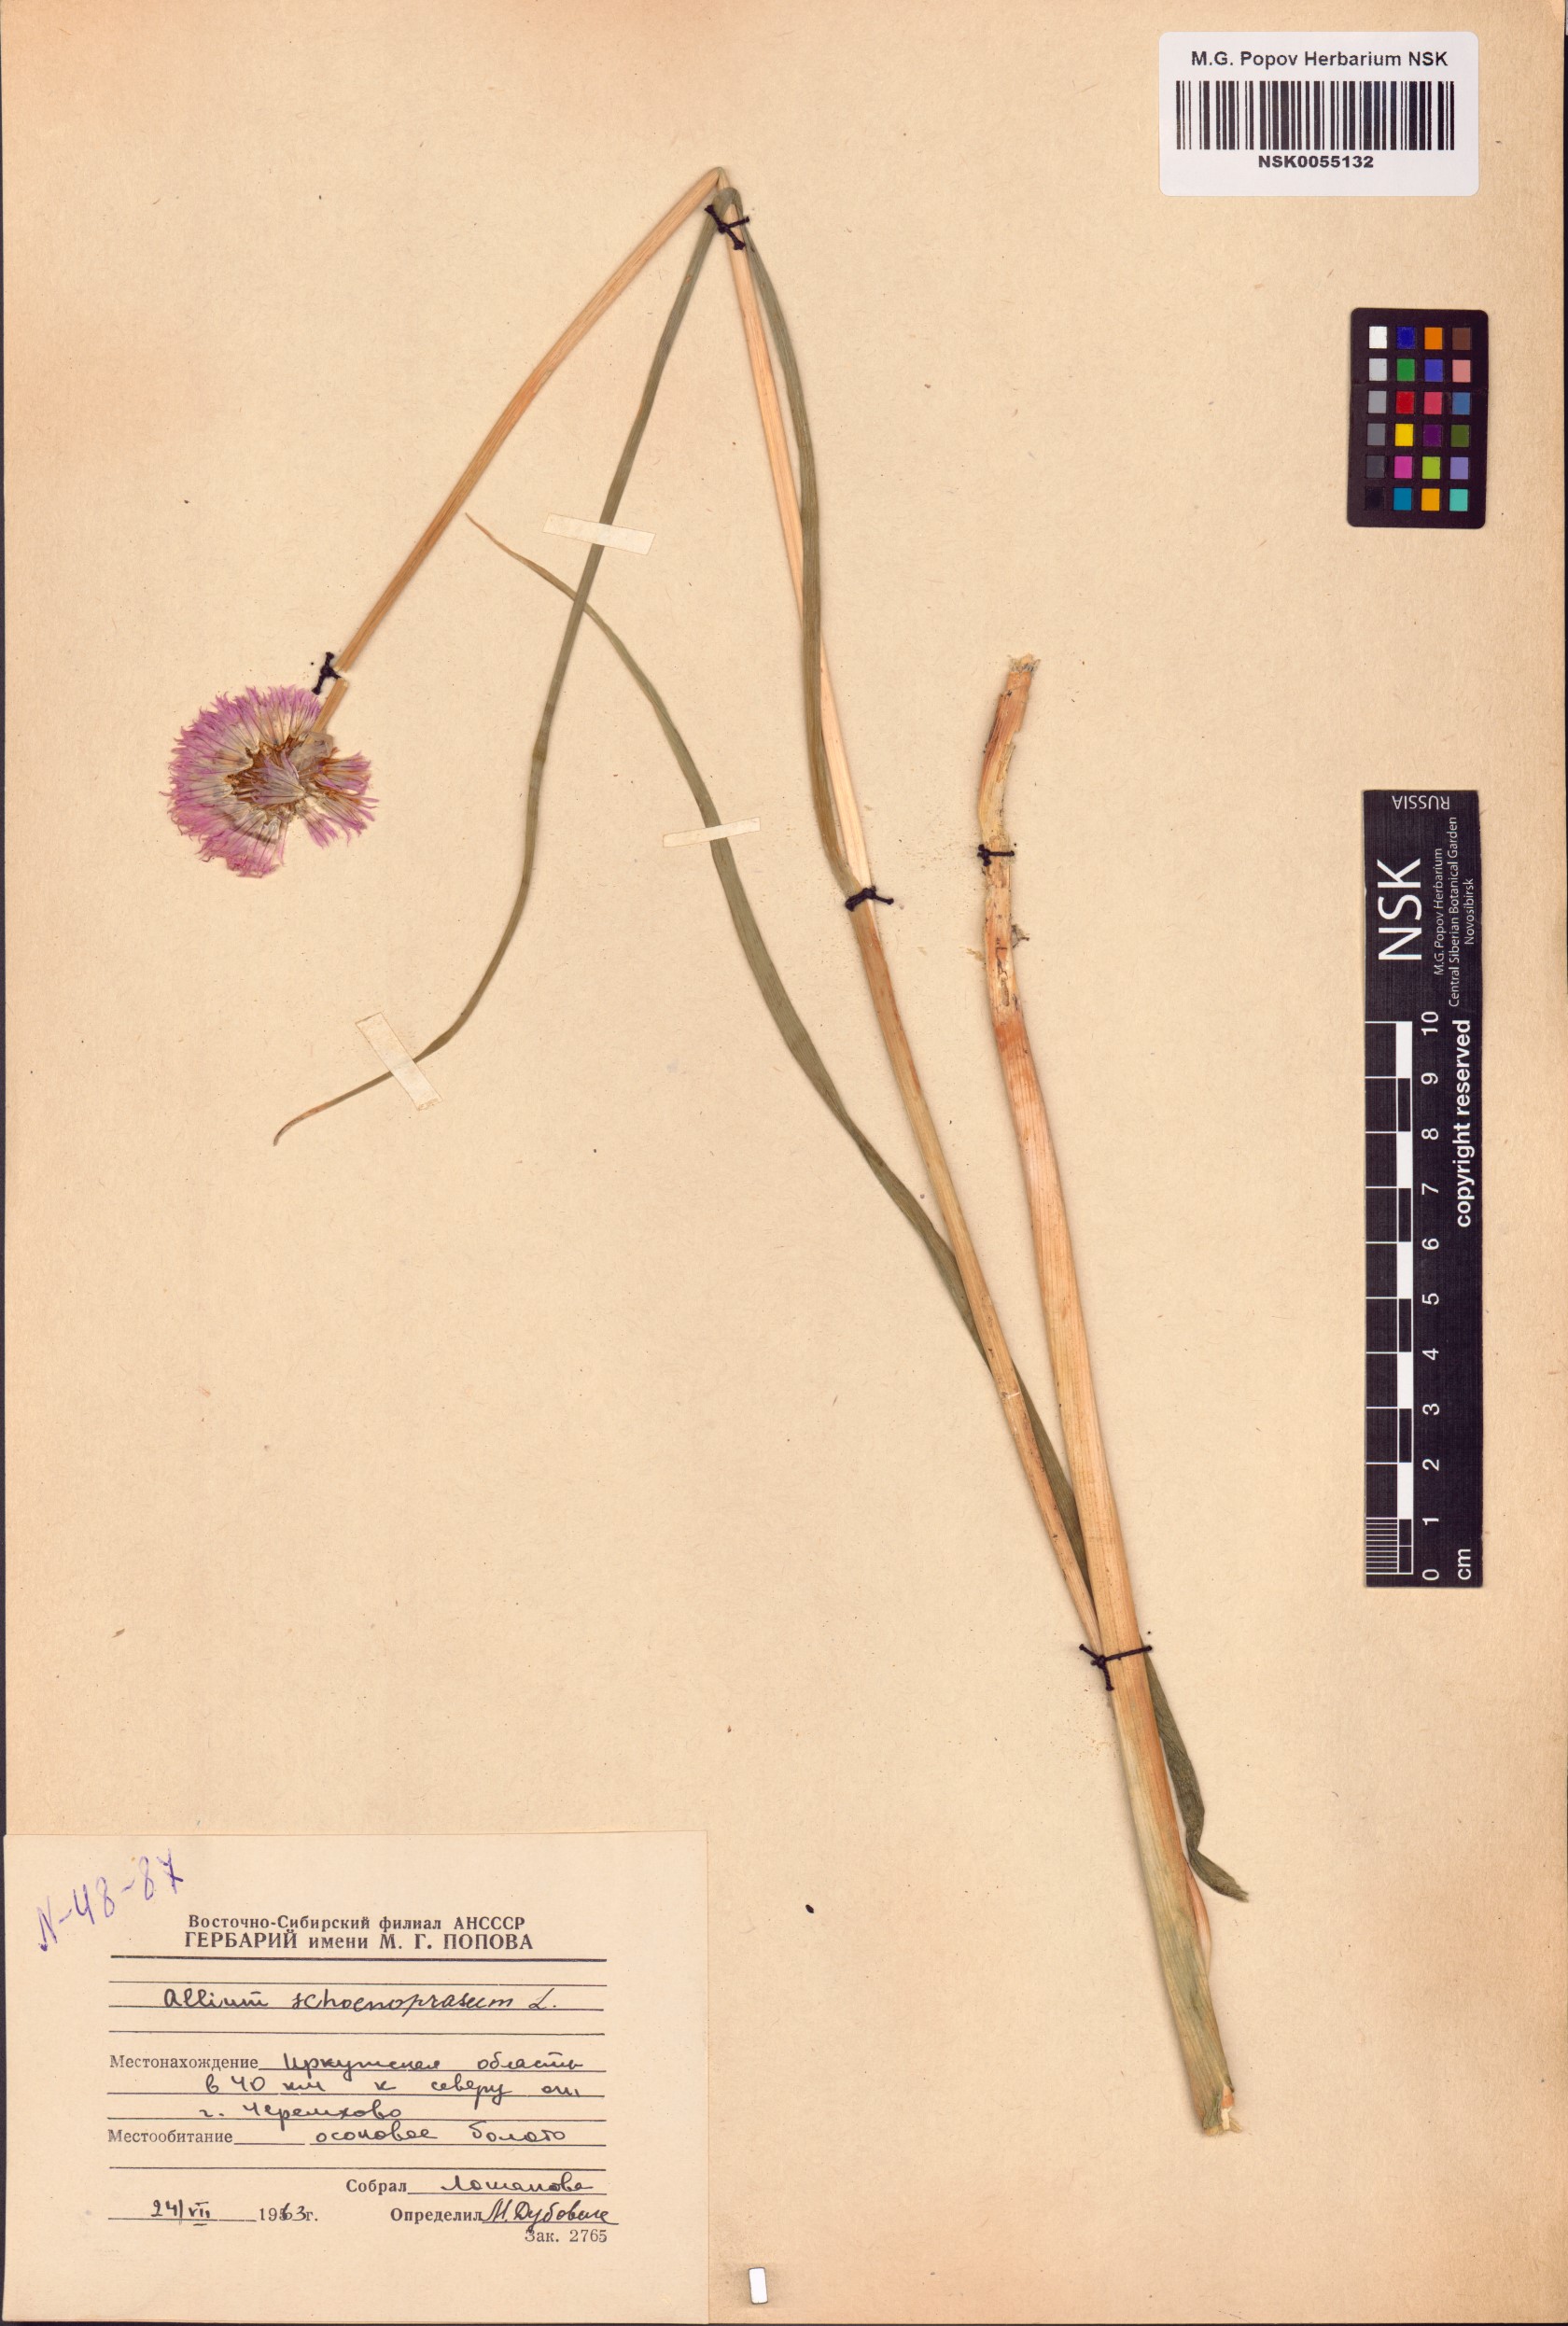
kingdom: Plantae
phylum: Tracheophyta
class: Liliopsida
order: Asparagales
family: Amaryllidaceae
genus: Allium
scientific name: Allium schoenoprasum
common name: Chives
